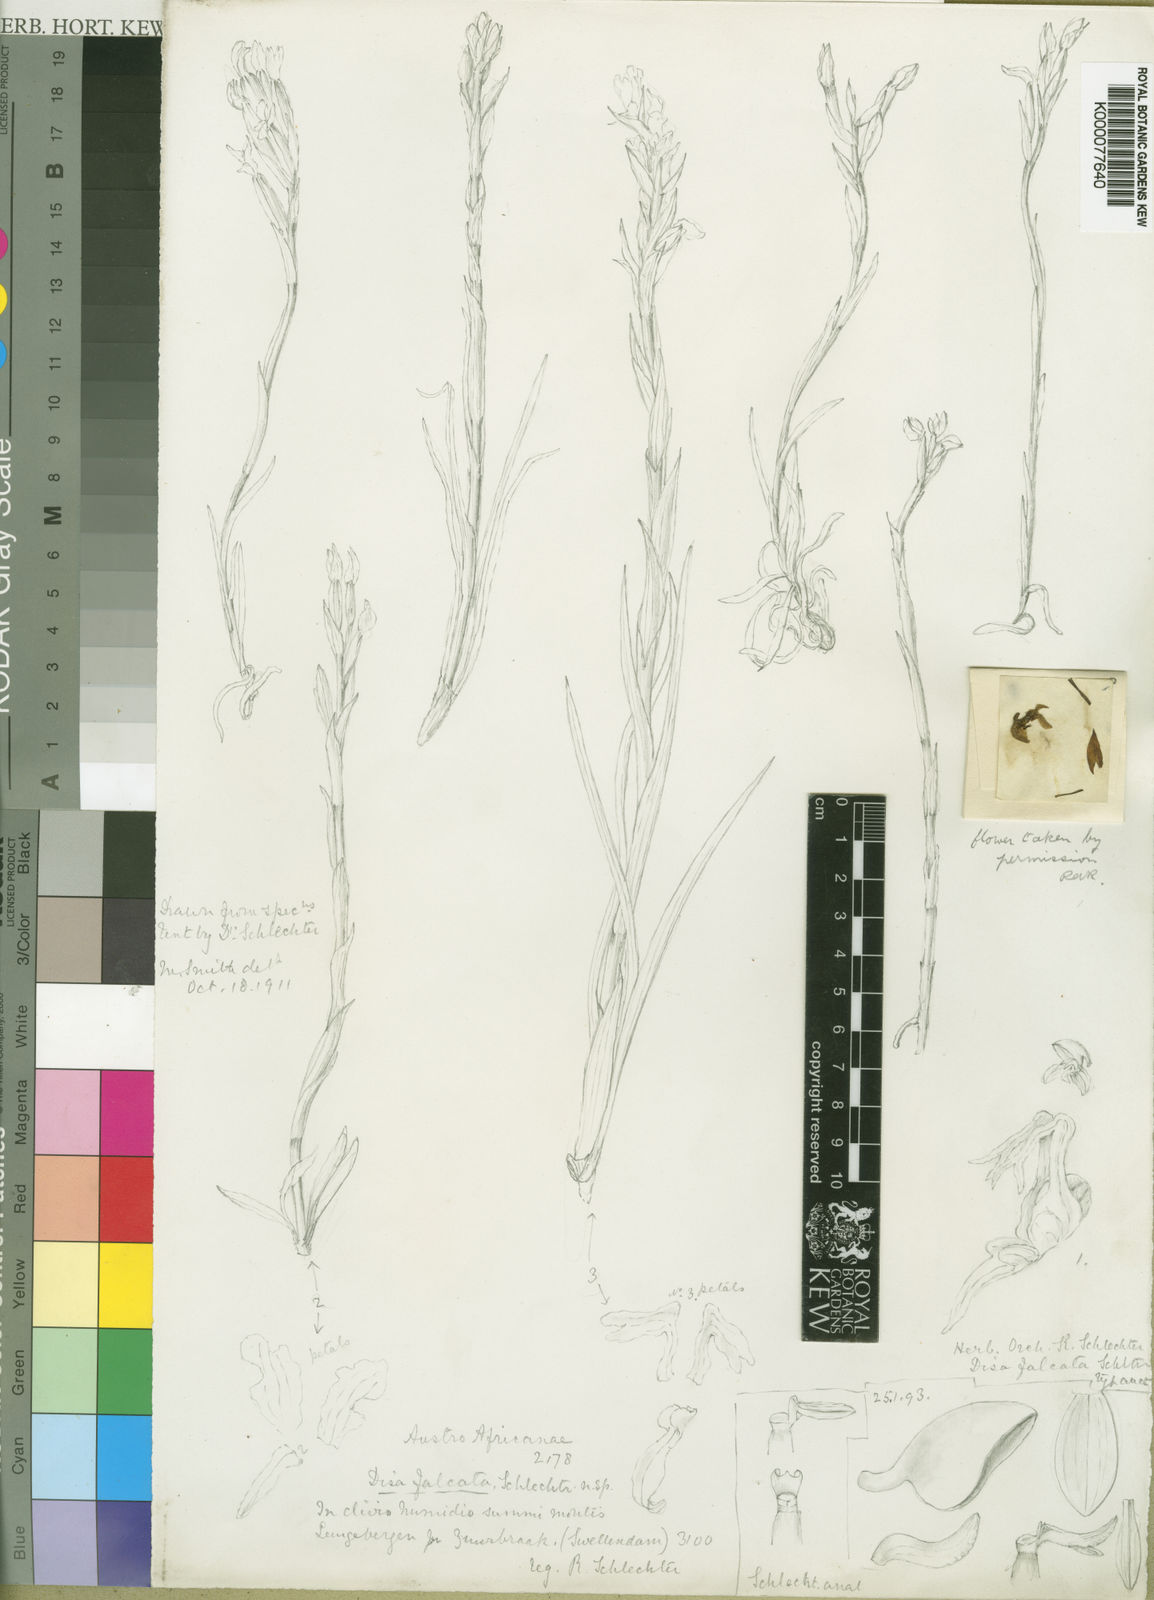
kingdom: Plantae
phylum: Tracheophyta
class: Liliopsida
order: Asparagales
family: Orchidaceae
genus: Disa
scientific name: Disa tripetaloides
